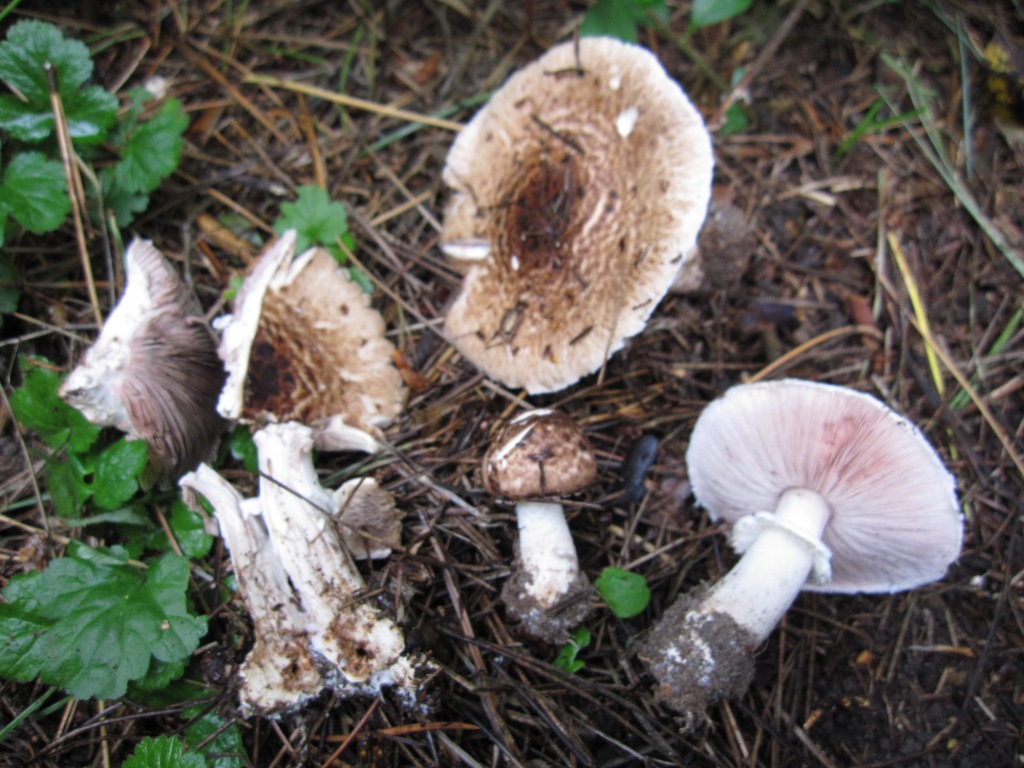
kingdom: Fungi
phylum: Basidiomycota
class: Agaricomycetes
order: Agaricales
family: Agaricaceae
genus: Agaricus
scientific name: Agaricus impudicus
